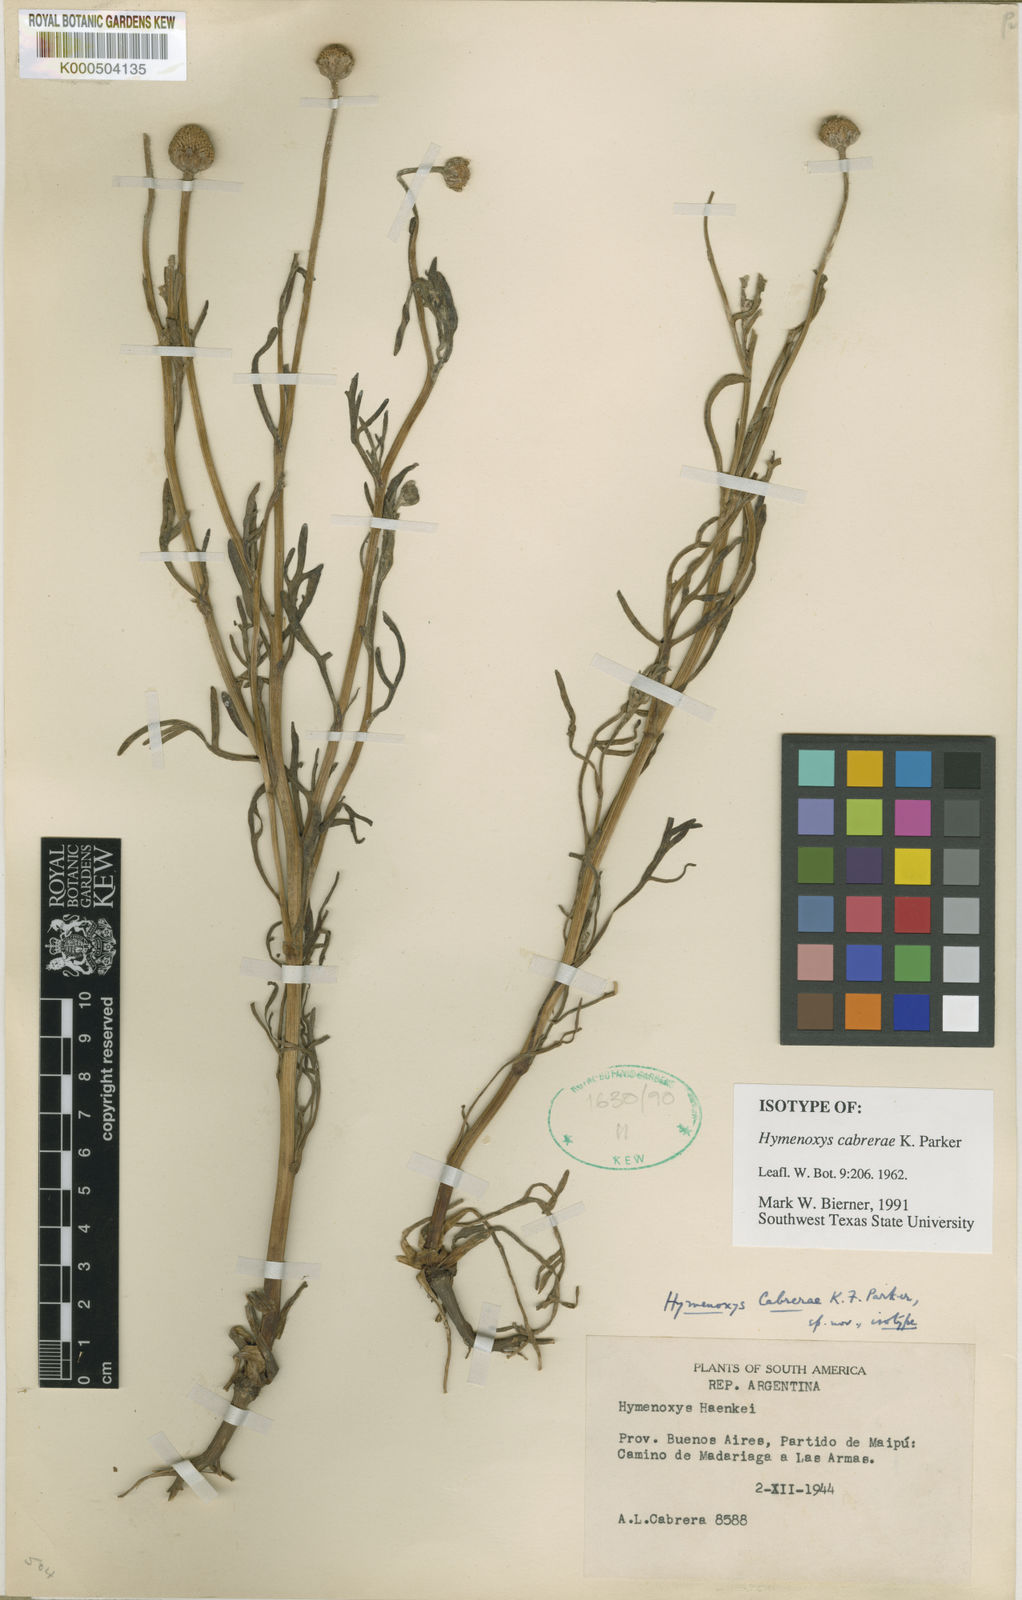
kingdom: Plantae
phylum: Tracheophyta
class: Magnoliopsida
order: Asterales
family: Asteraceae
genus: Hymenoxys
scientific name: Hymenoxys cabrerae
